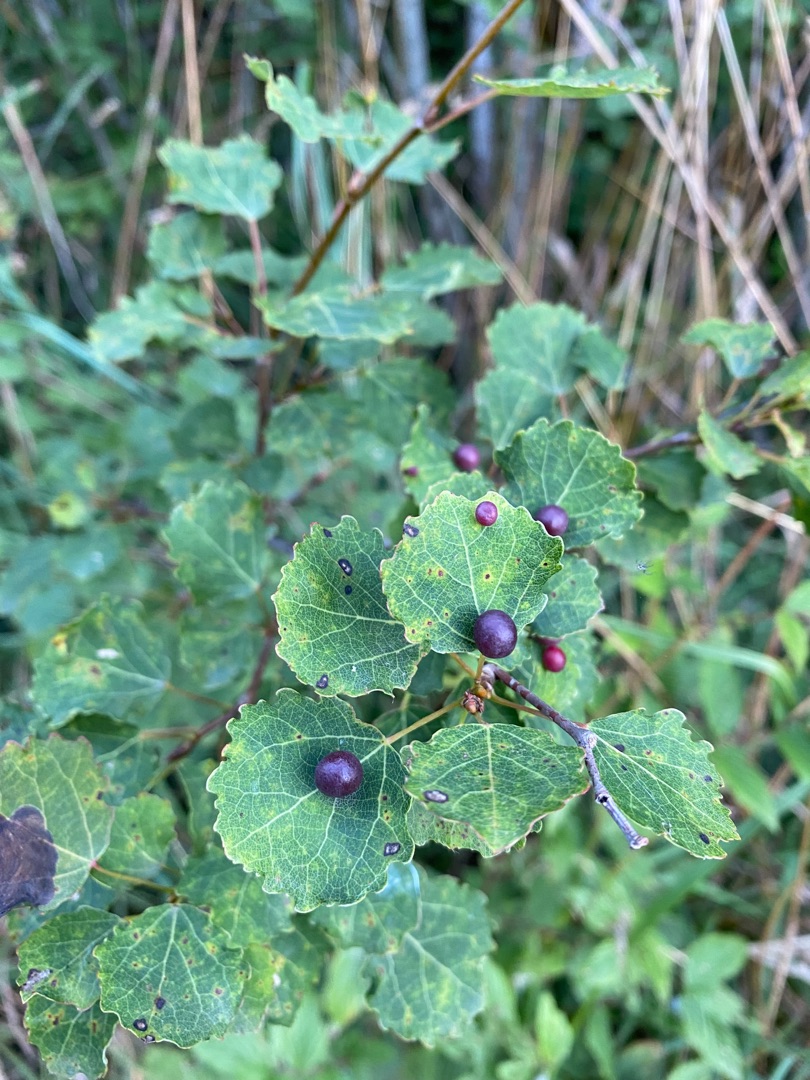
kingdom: Plantae
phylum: Tracheophyta
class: Magnoliopsida
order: Malpighiales
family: Salicaceae
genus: Populus
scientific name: Populus tremula
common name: Bævreasp
